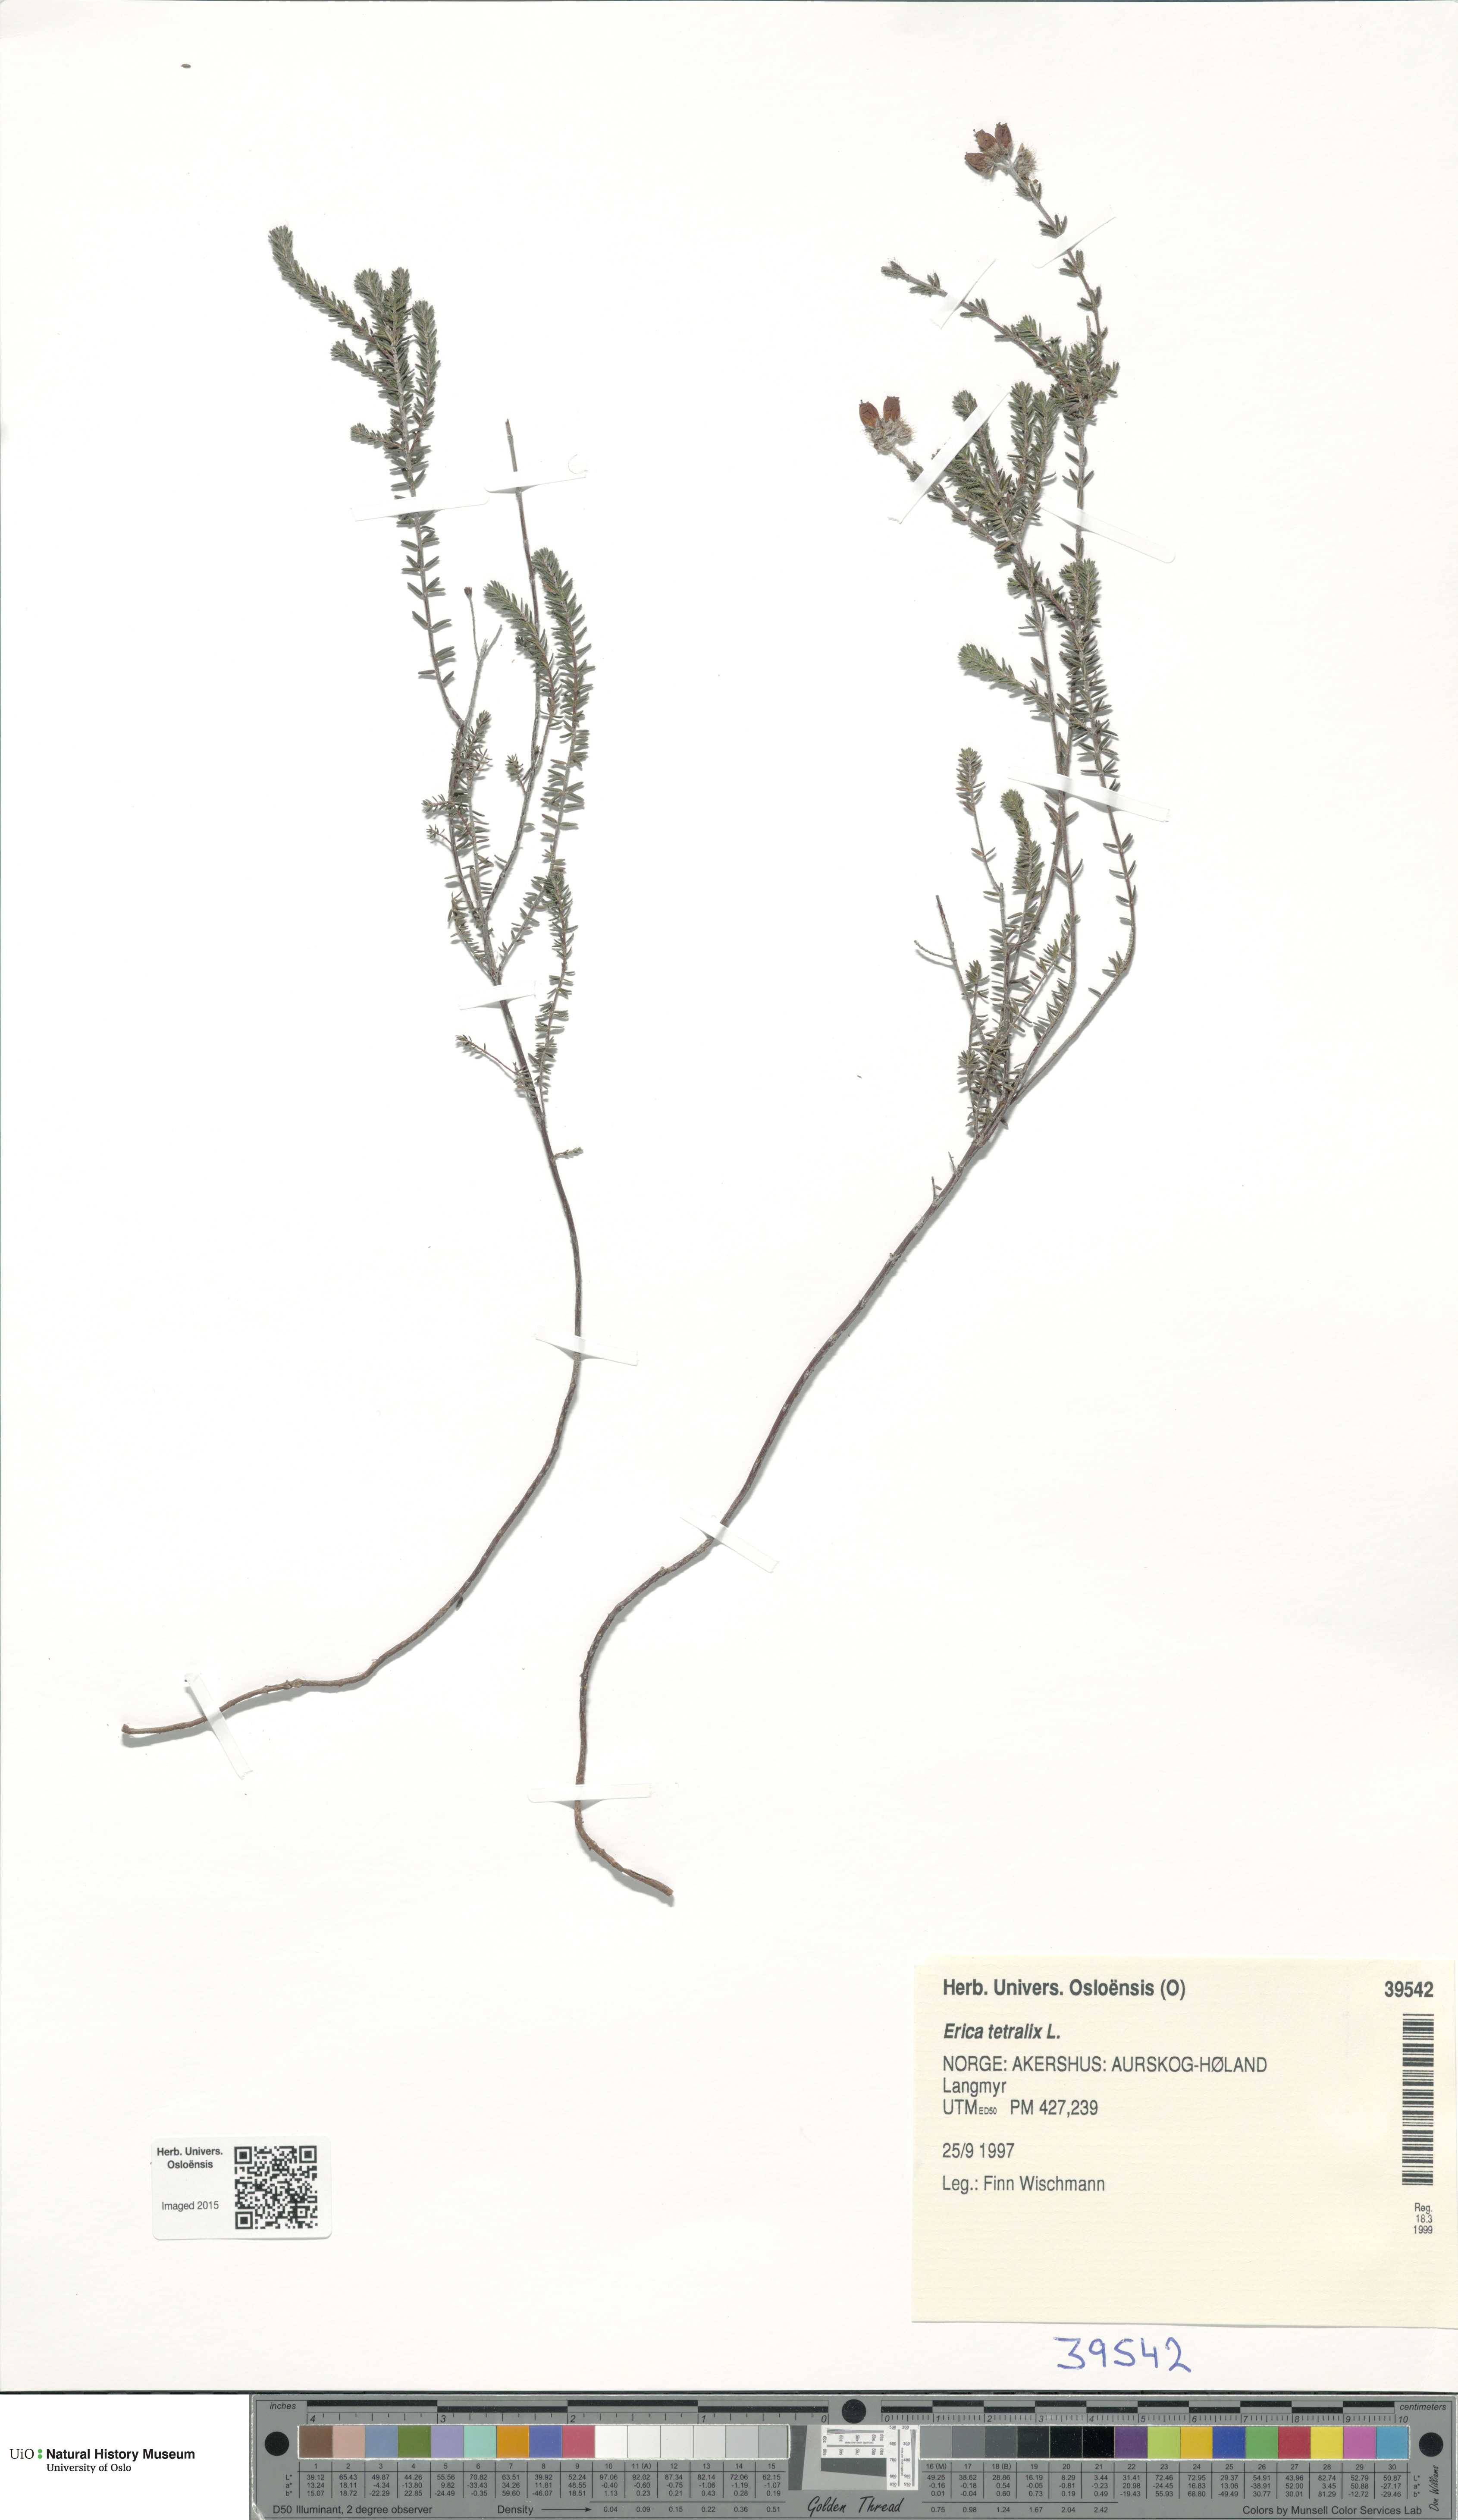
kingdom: Plantae
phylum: Tracheophyta
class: Magnoliopsida
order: Ericales
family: Ericaceae
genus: Erica
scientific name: Erica tetralix
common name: Cross-leaved heath
